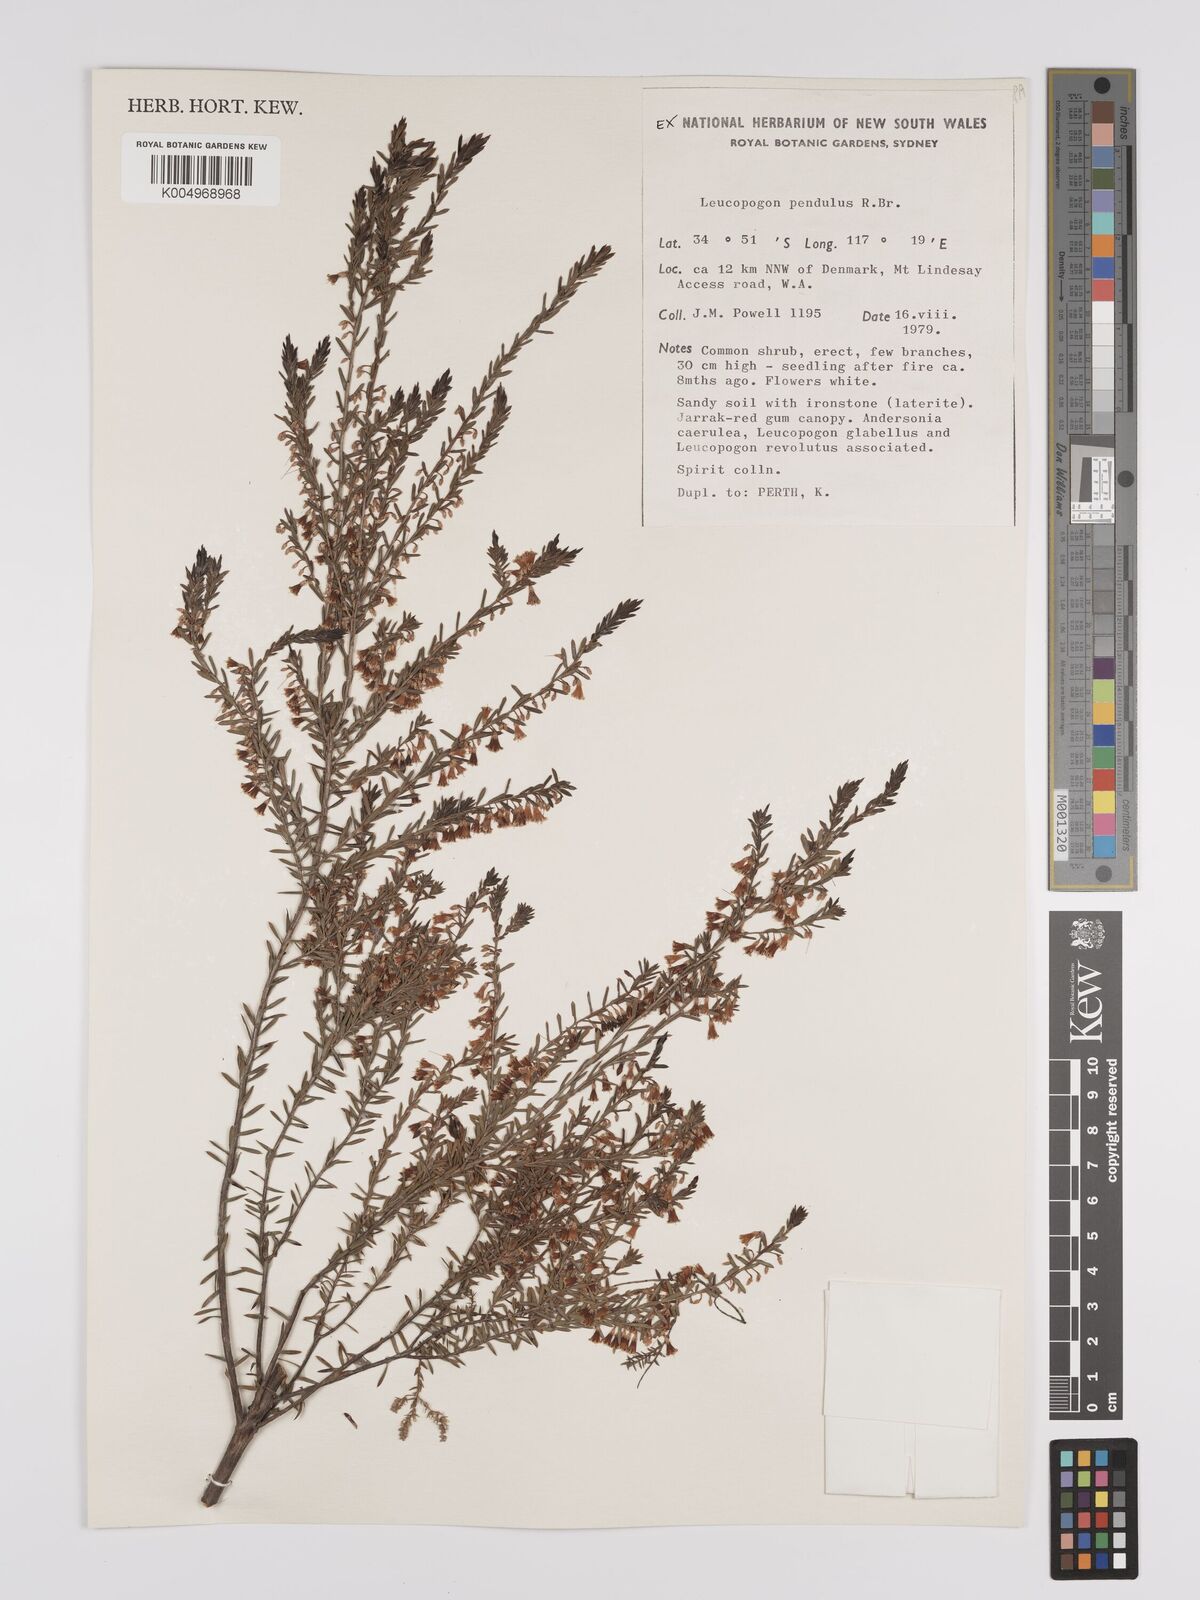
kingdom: Plantae
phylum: Tracheophyta
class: Magnoliopsida
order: Ericales
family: Ericaceae
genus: Styphelia
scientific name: Styphelia pendula
